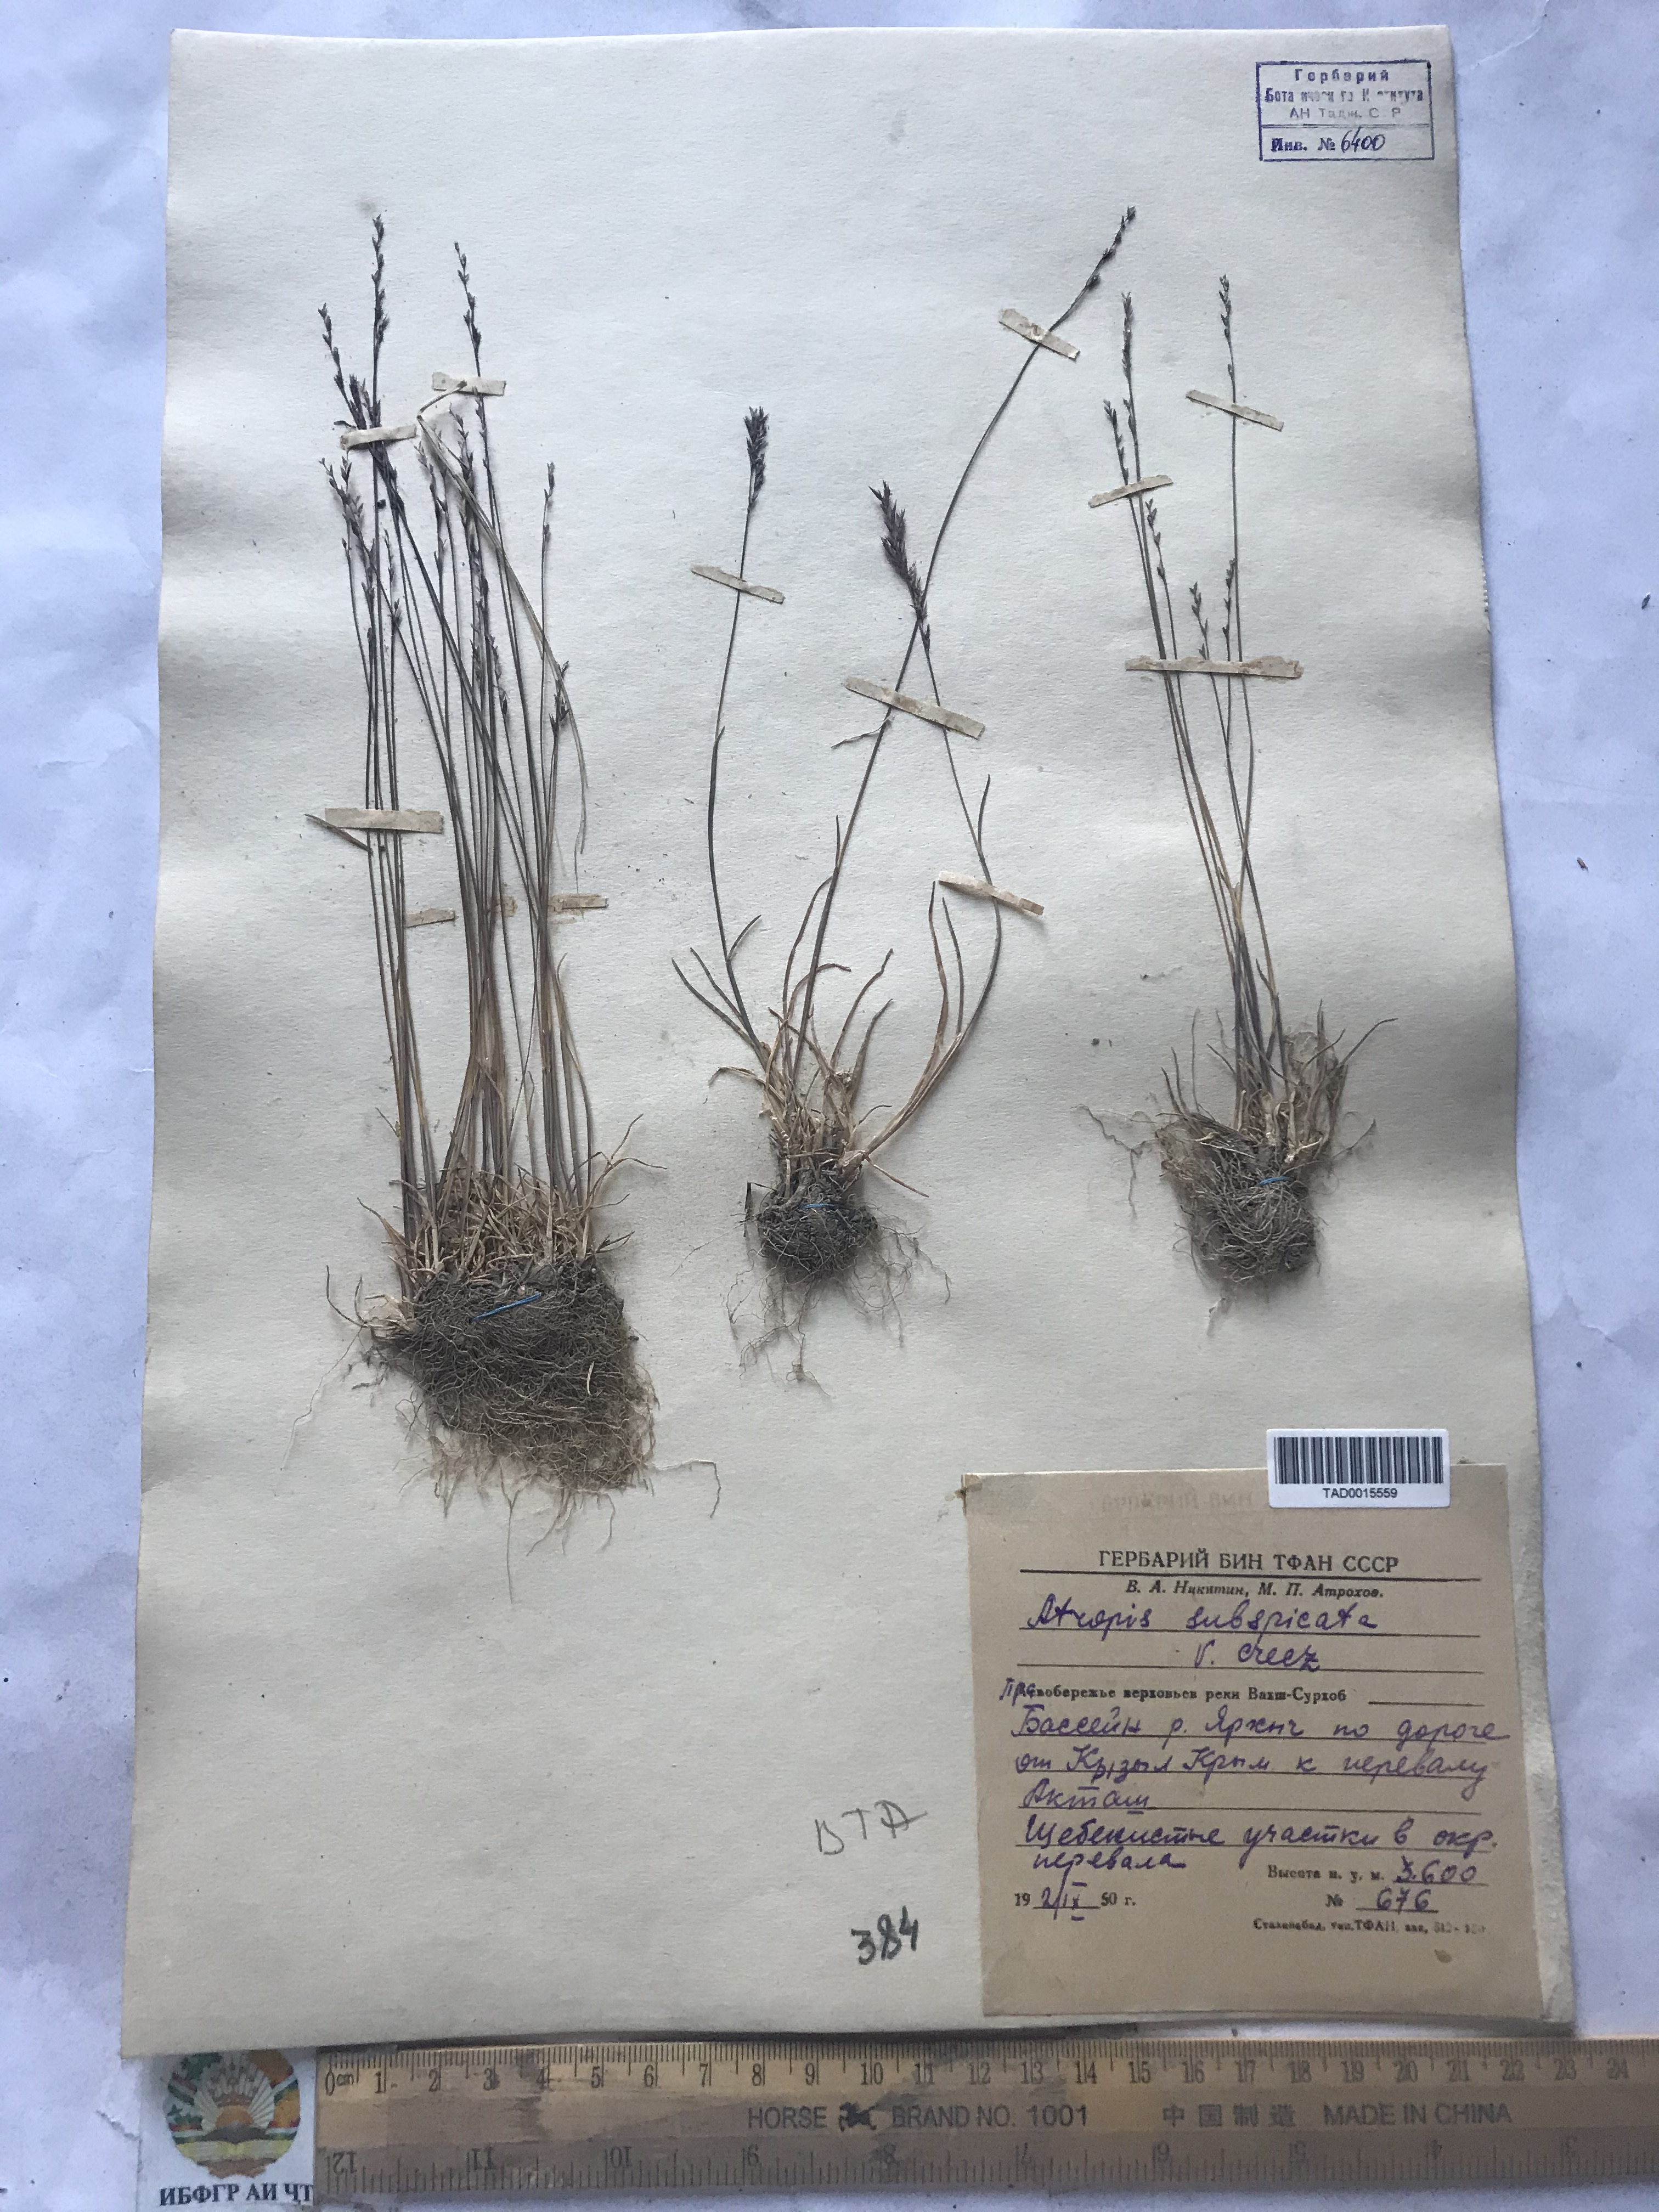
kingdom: Plantae
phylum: Tracheophyta
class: Liliopsida
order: Poales
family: Poaceae
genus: Puccinellia
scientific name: Puccinellia subspicata
